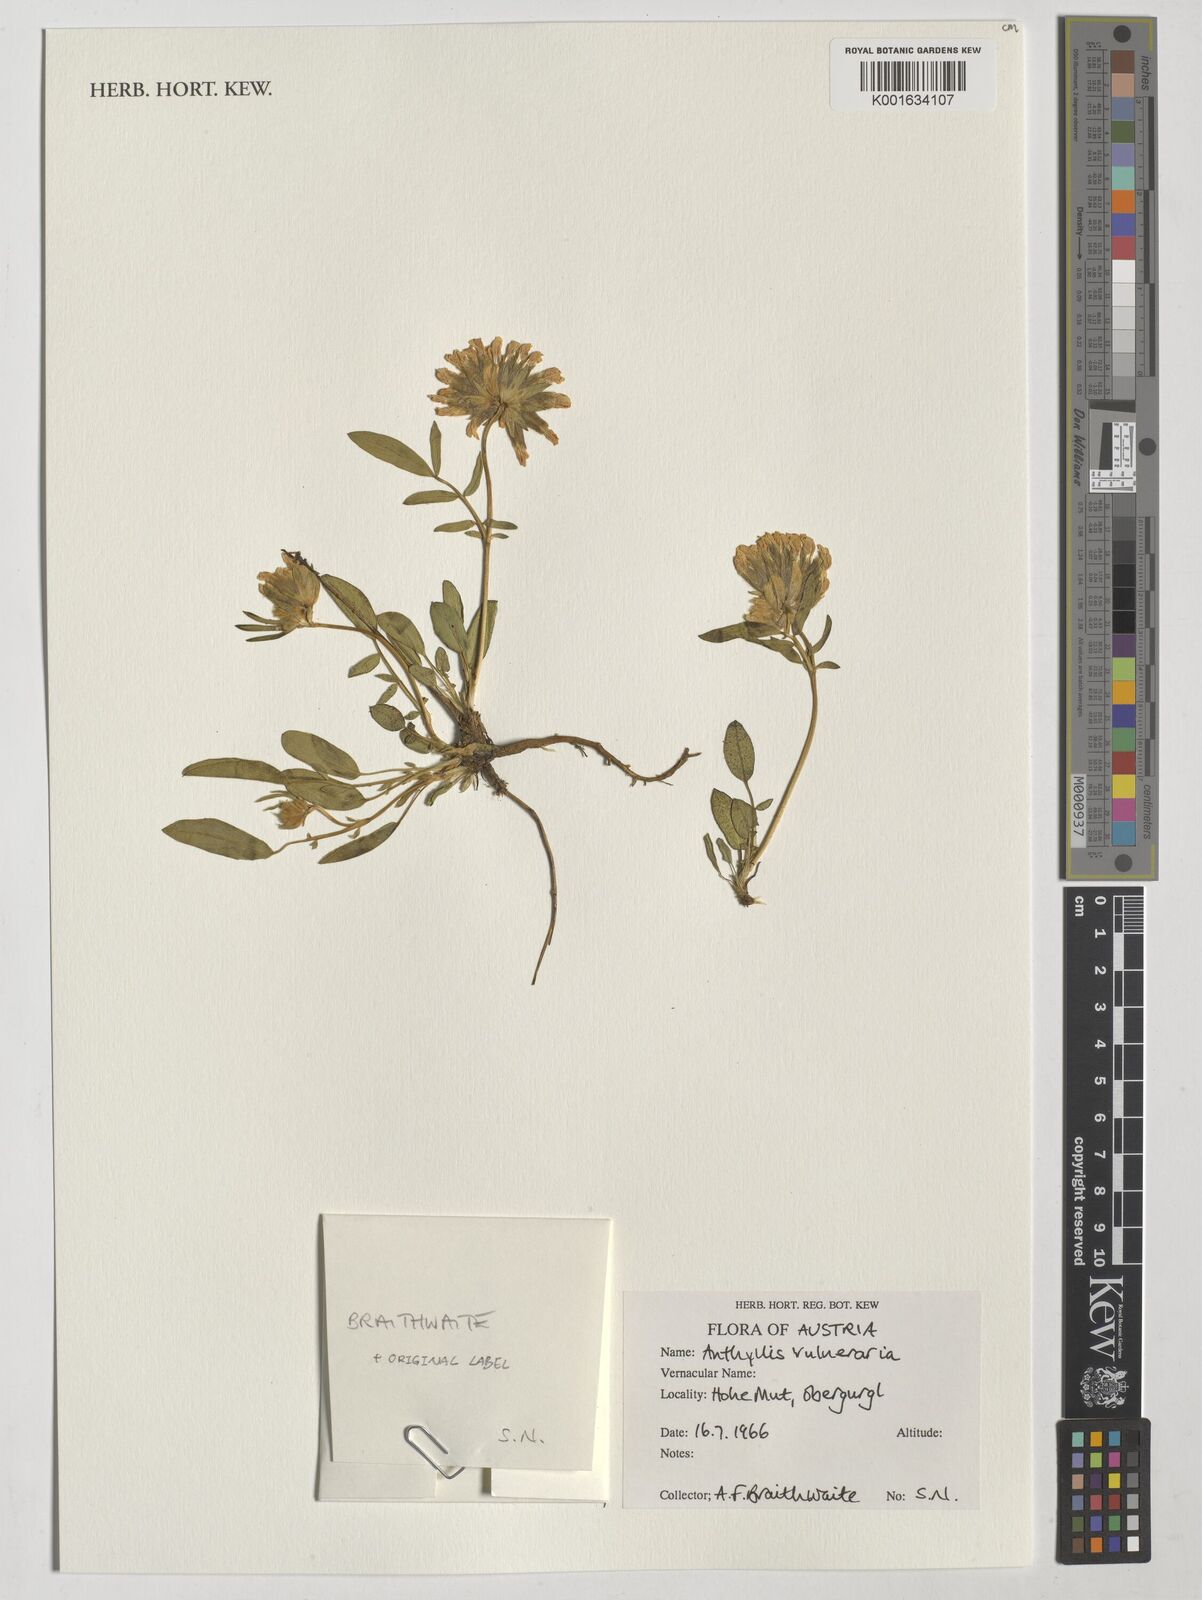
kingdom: Plantae
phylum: Tracheophyta
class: Magnoliopsida
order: Fabales
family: Fabaceae
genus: Anthyllis
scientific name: Anthyllis vulneraria
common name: Kidney vetch
